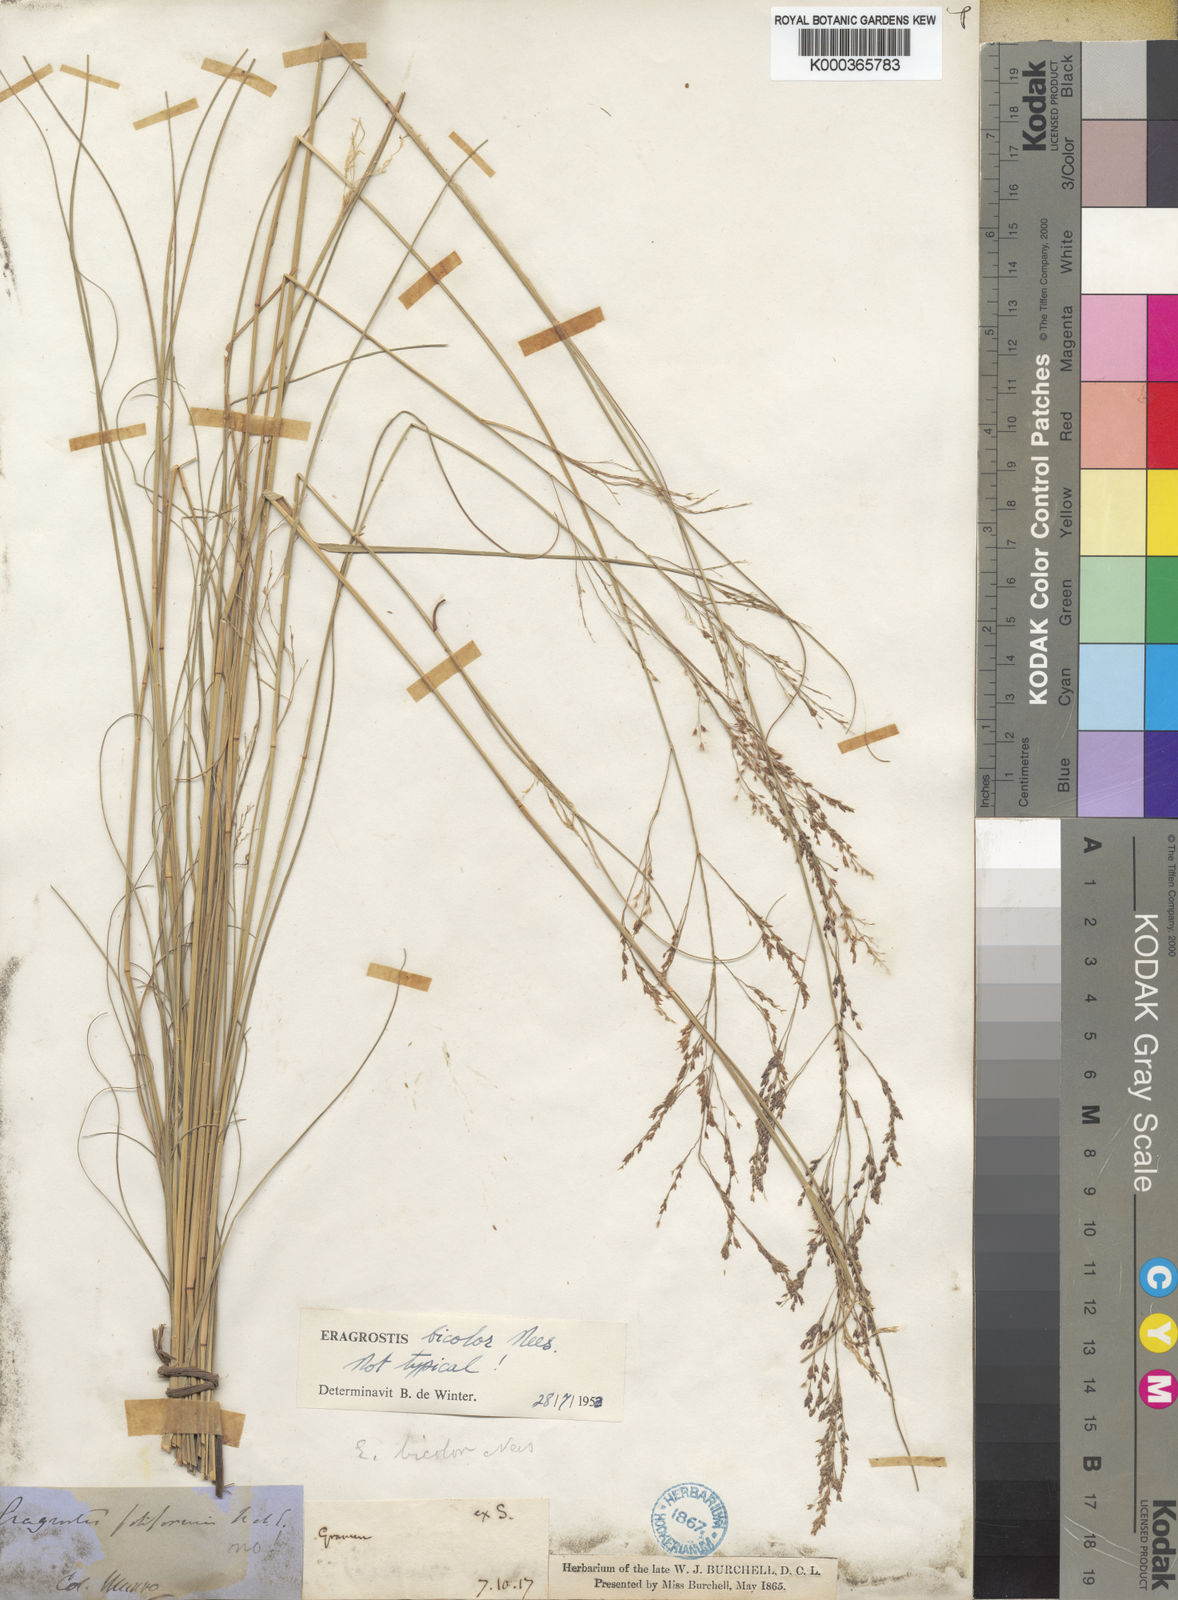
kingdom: Plantae
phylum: Tracheophyta
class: Liliopsida
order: Poales
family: Poaceae
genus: Eragrostis
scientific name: Eragrostis bicolor
